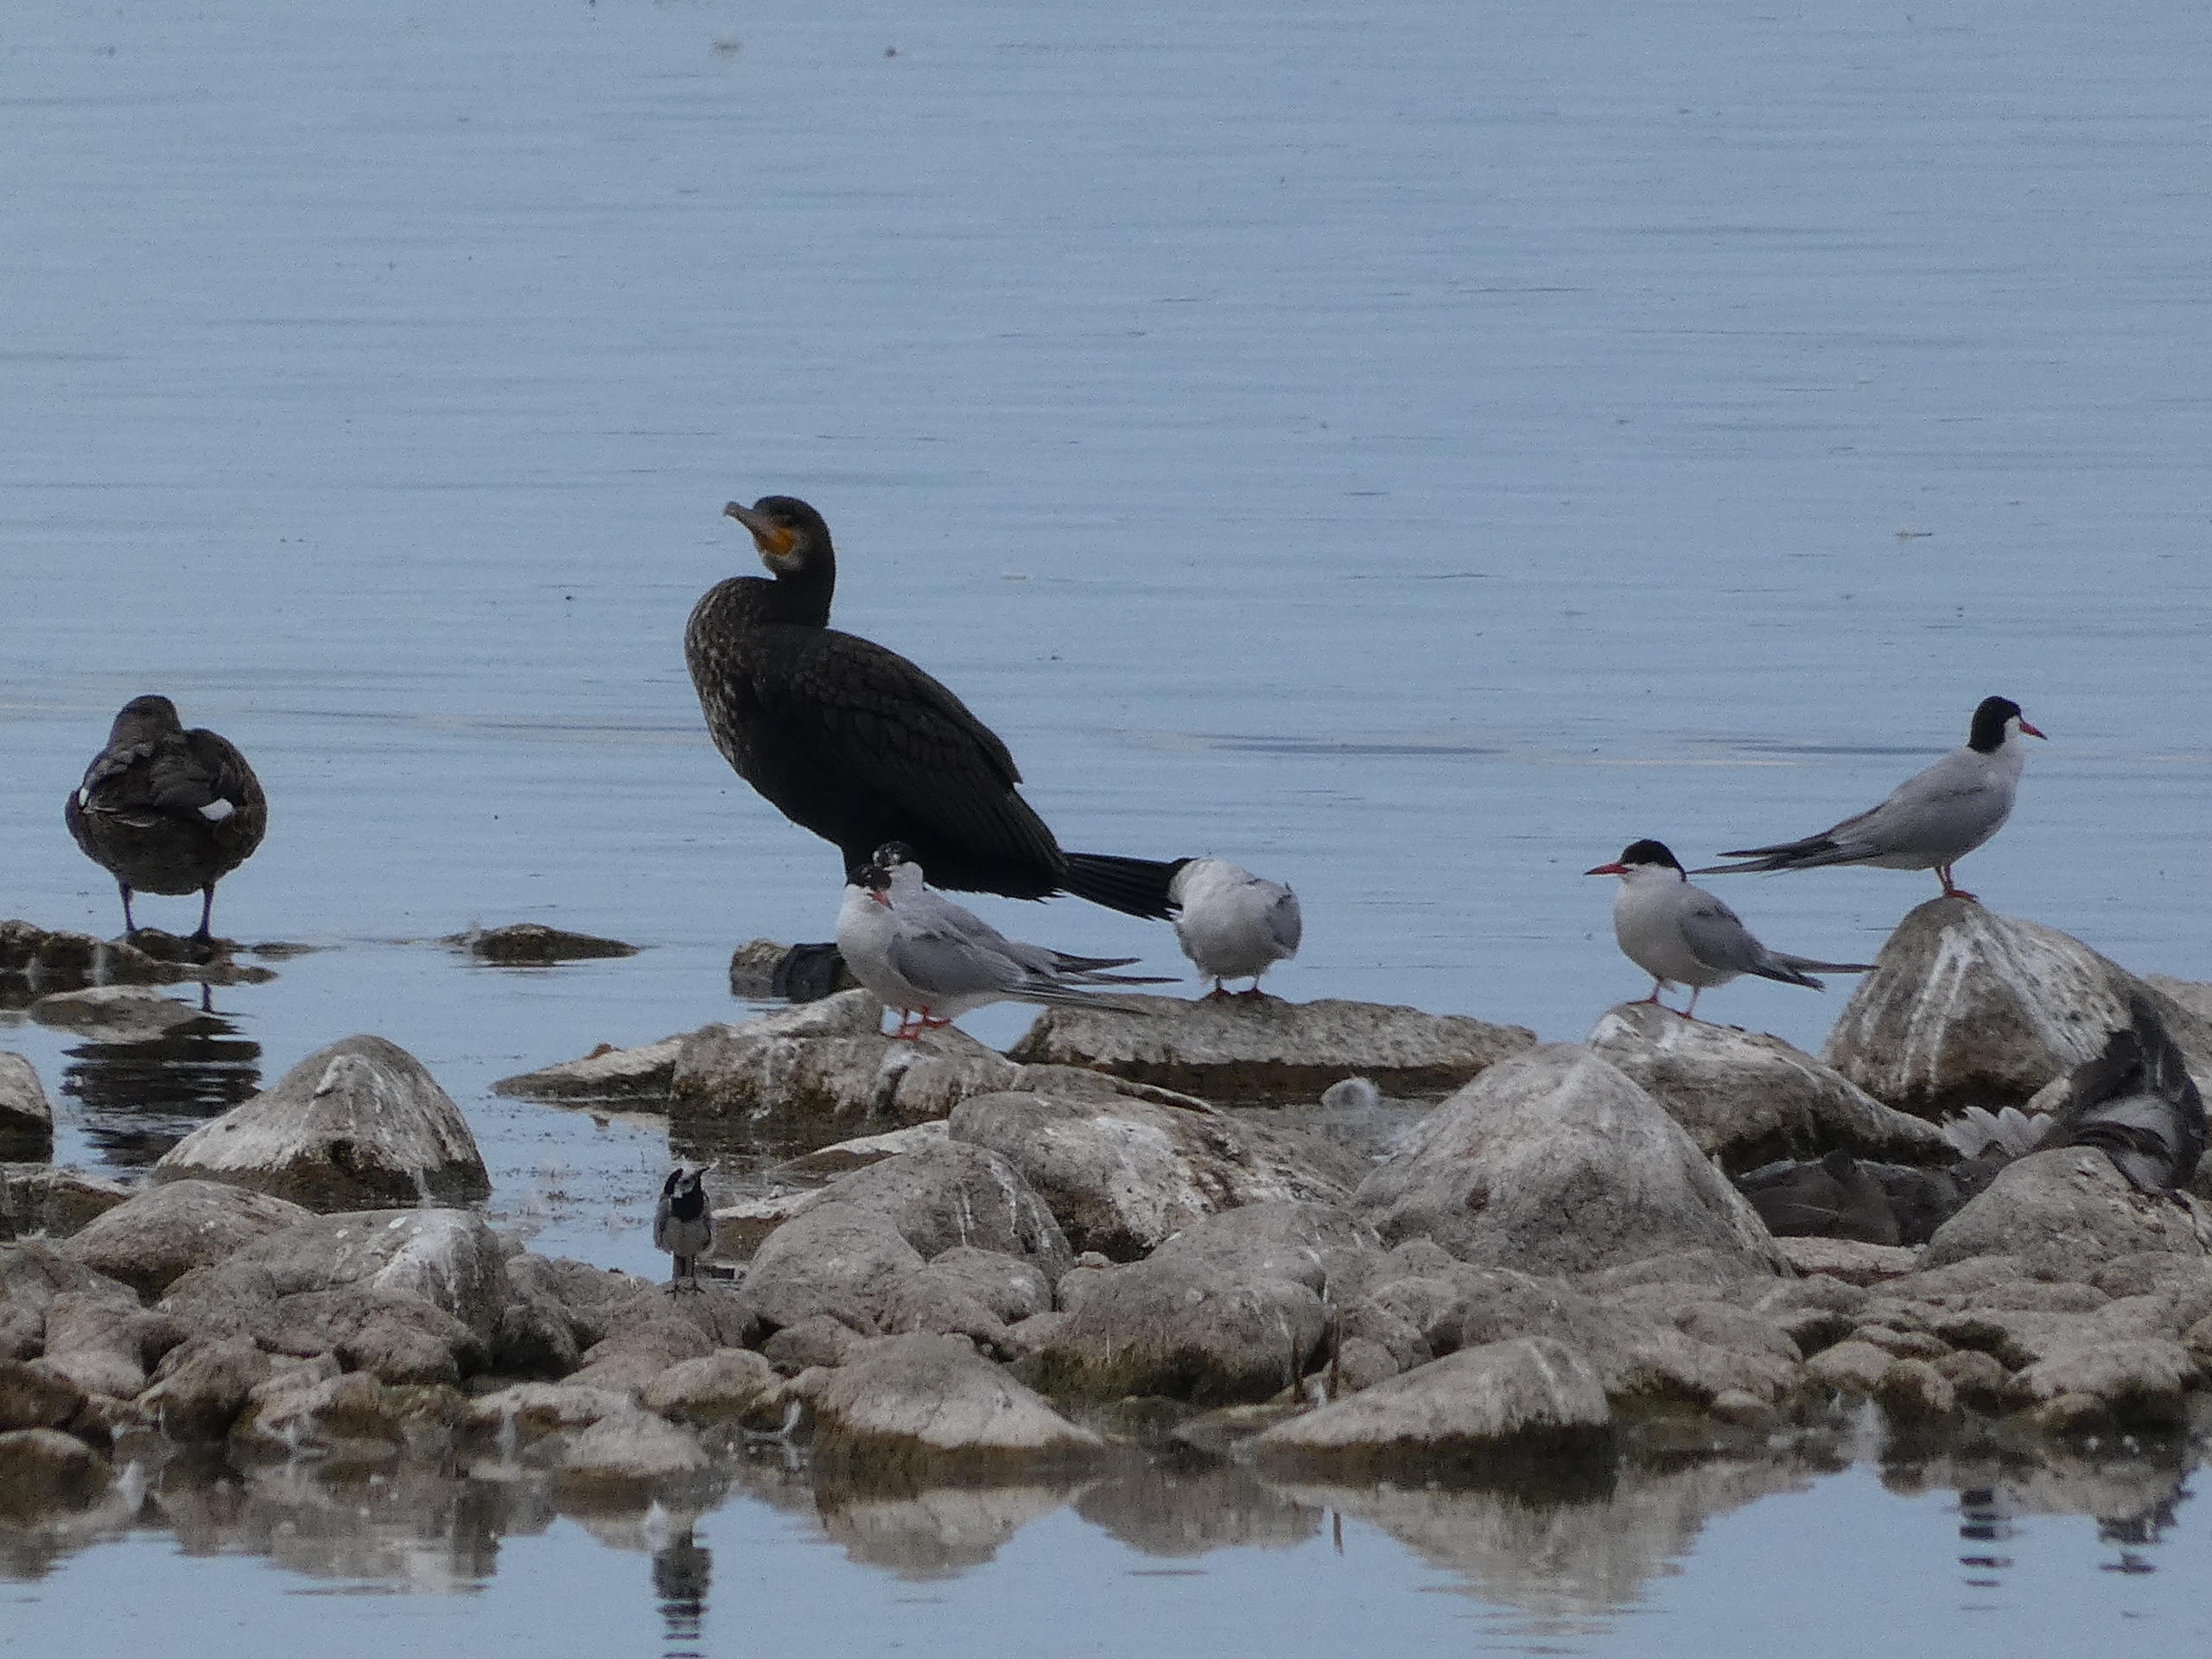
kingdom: Animalia
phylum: Chordata
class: Aves
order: Passeriformes
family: Motacillidae
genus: Motacilla
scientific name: Motacilla alba
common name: Hvid vipstjert
